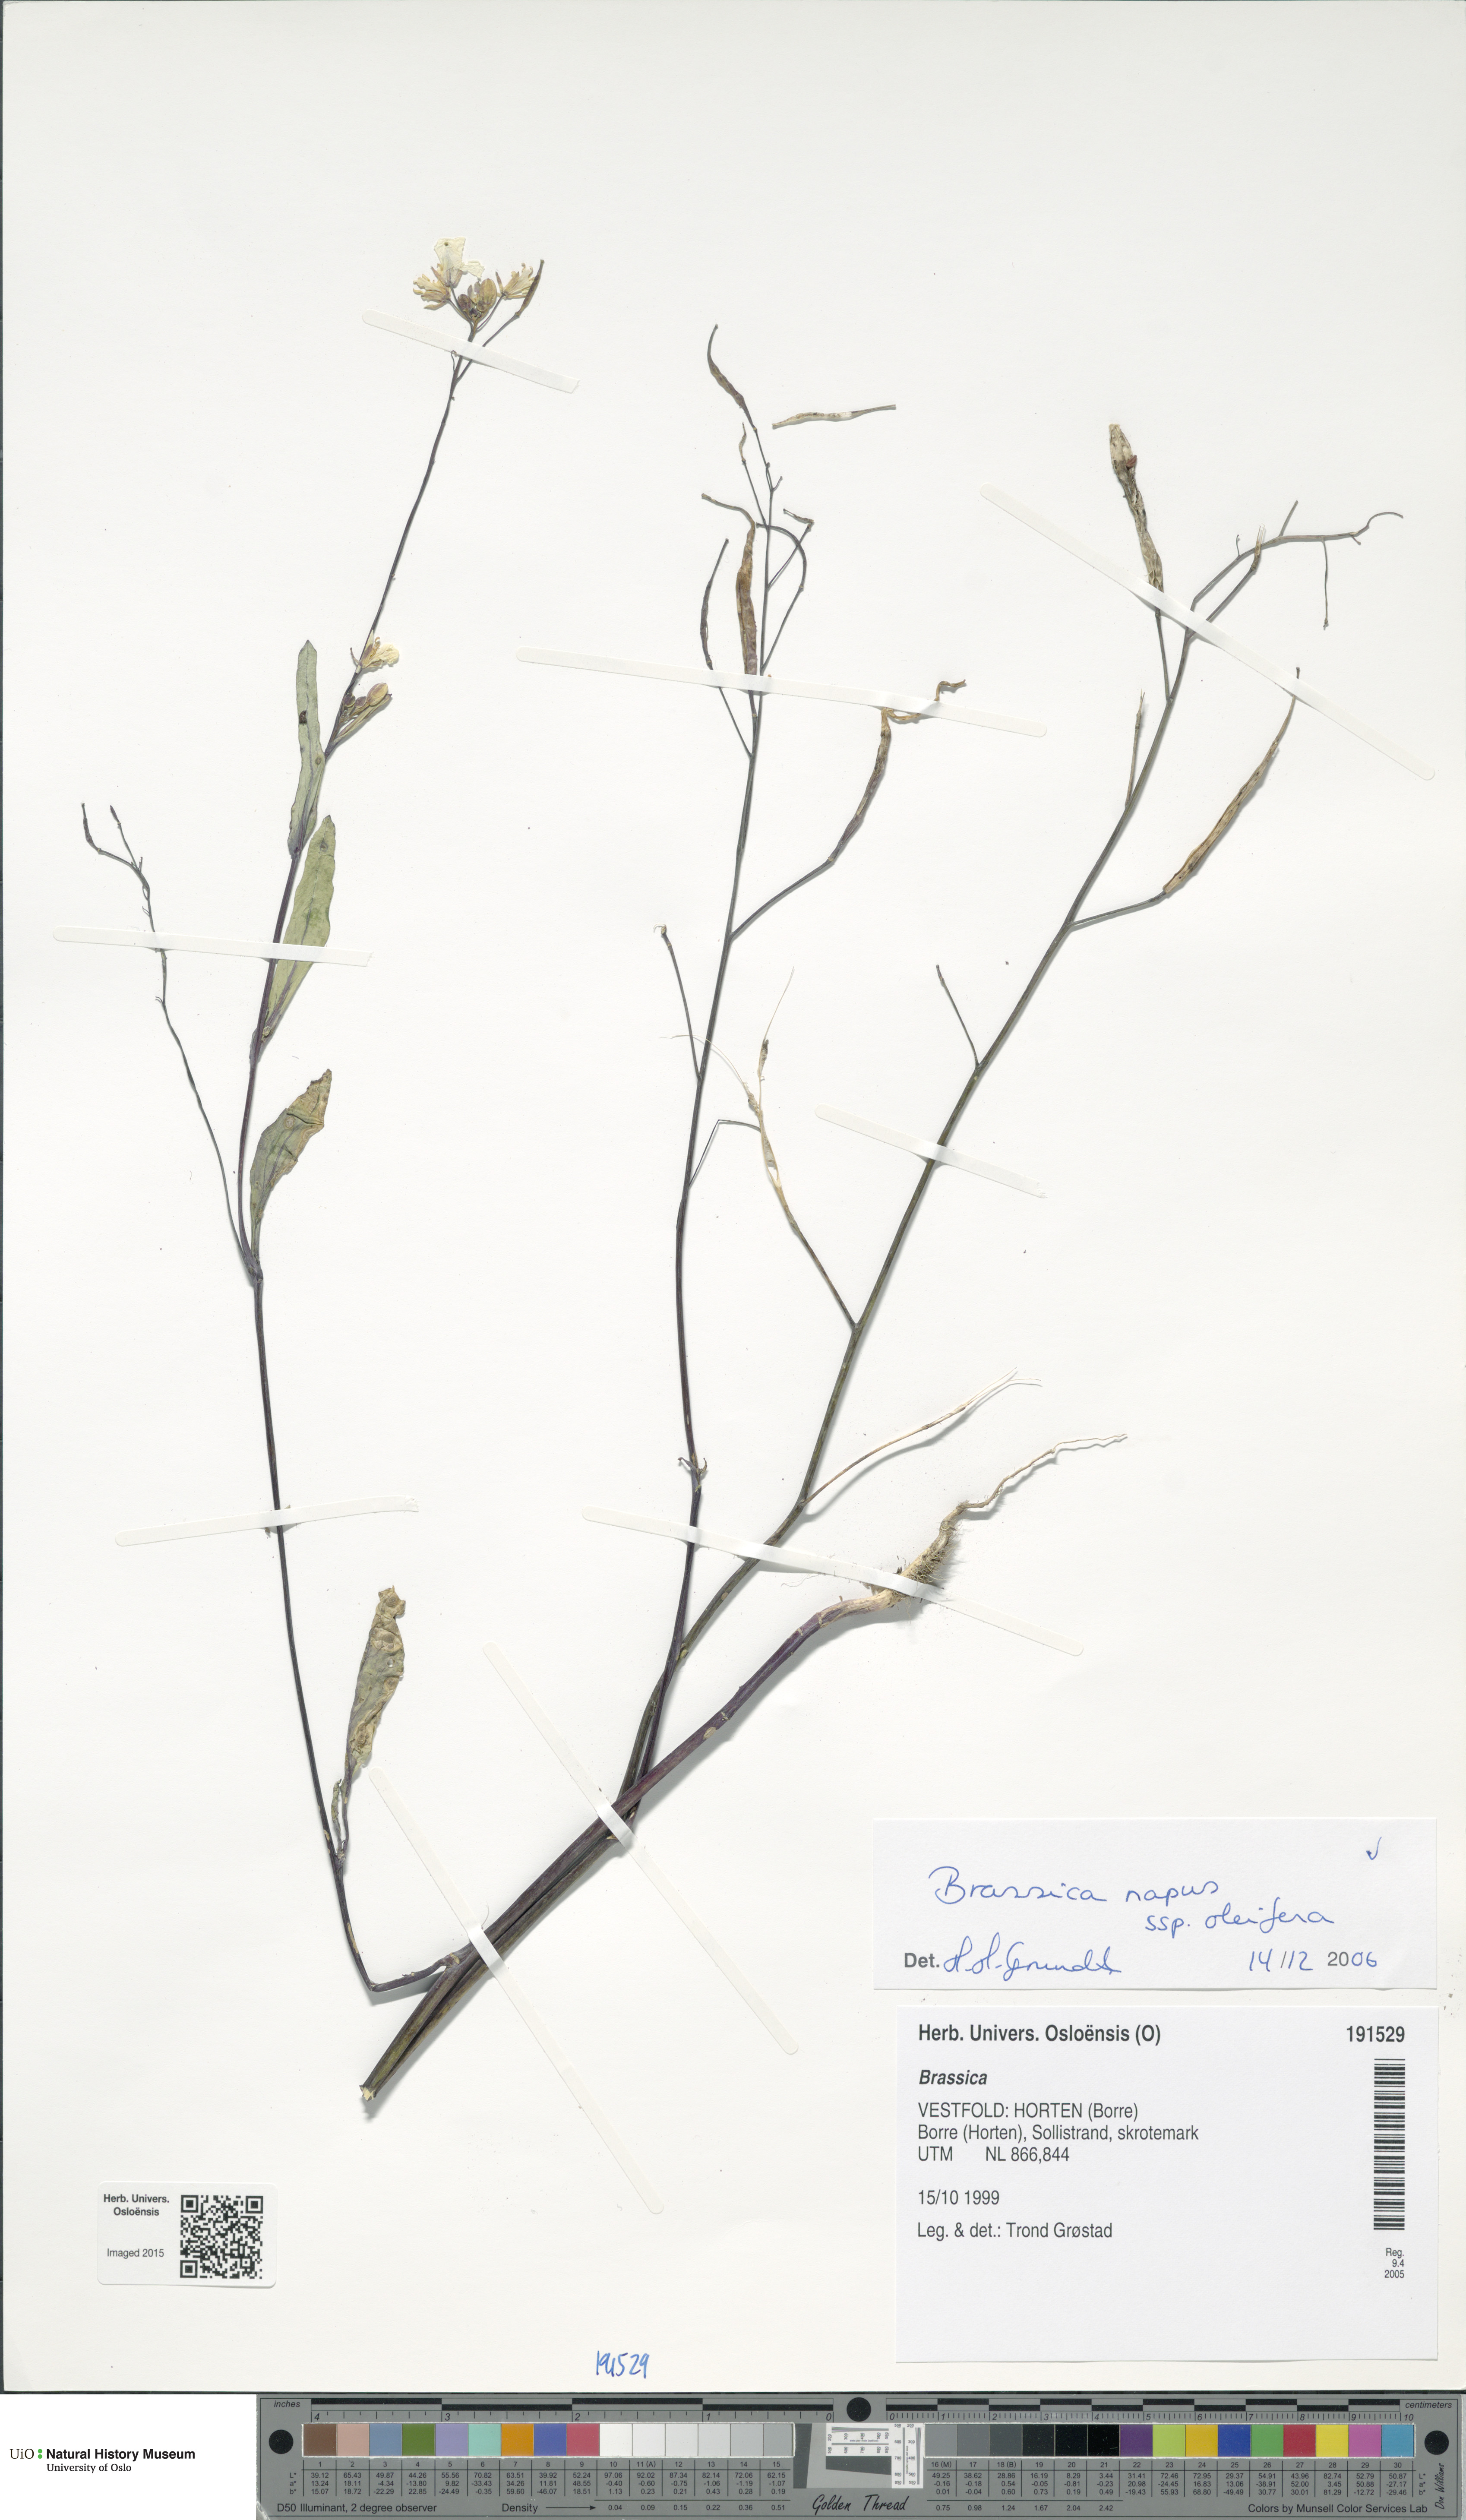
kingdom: Plantae
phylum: Tracheophyta
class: Magnoliopsida
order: Brassicales
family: Brassicaceae
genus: Brassica
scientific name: Brassica napus
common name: Rape
